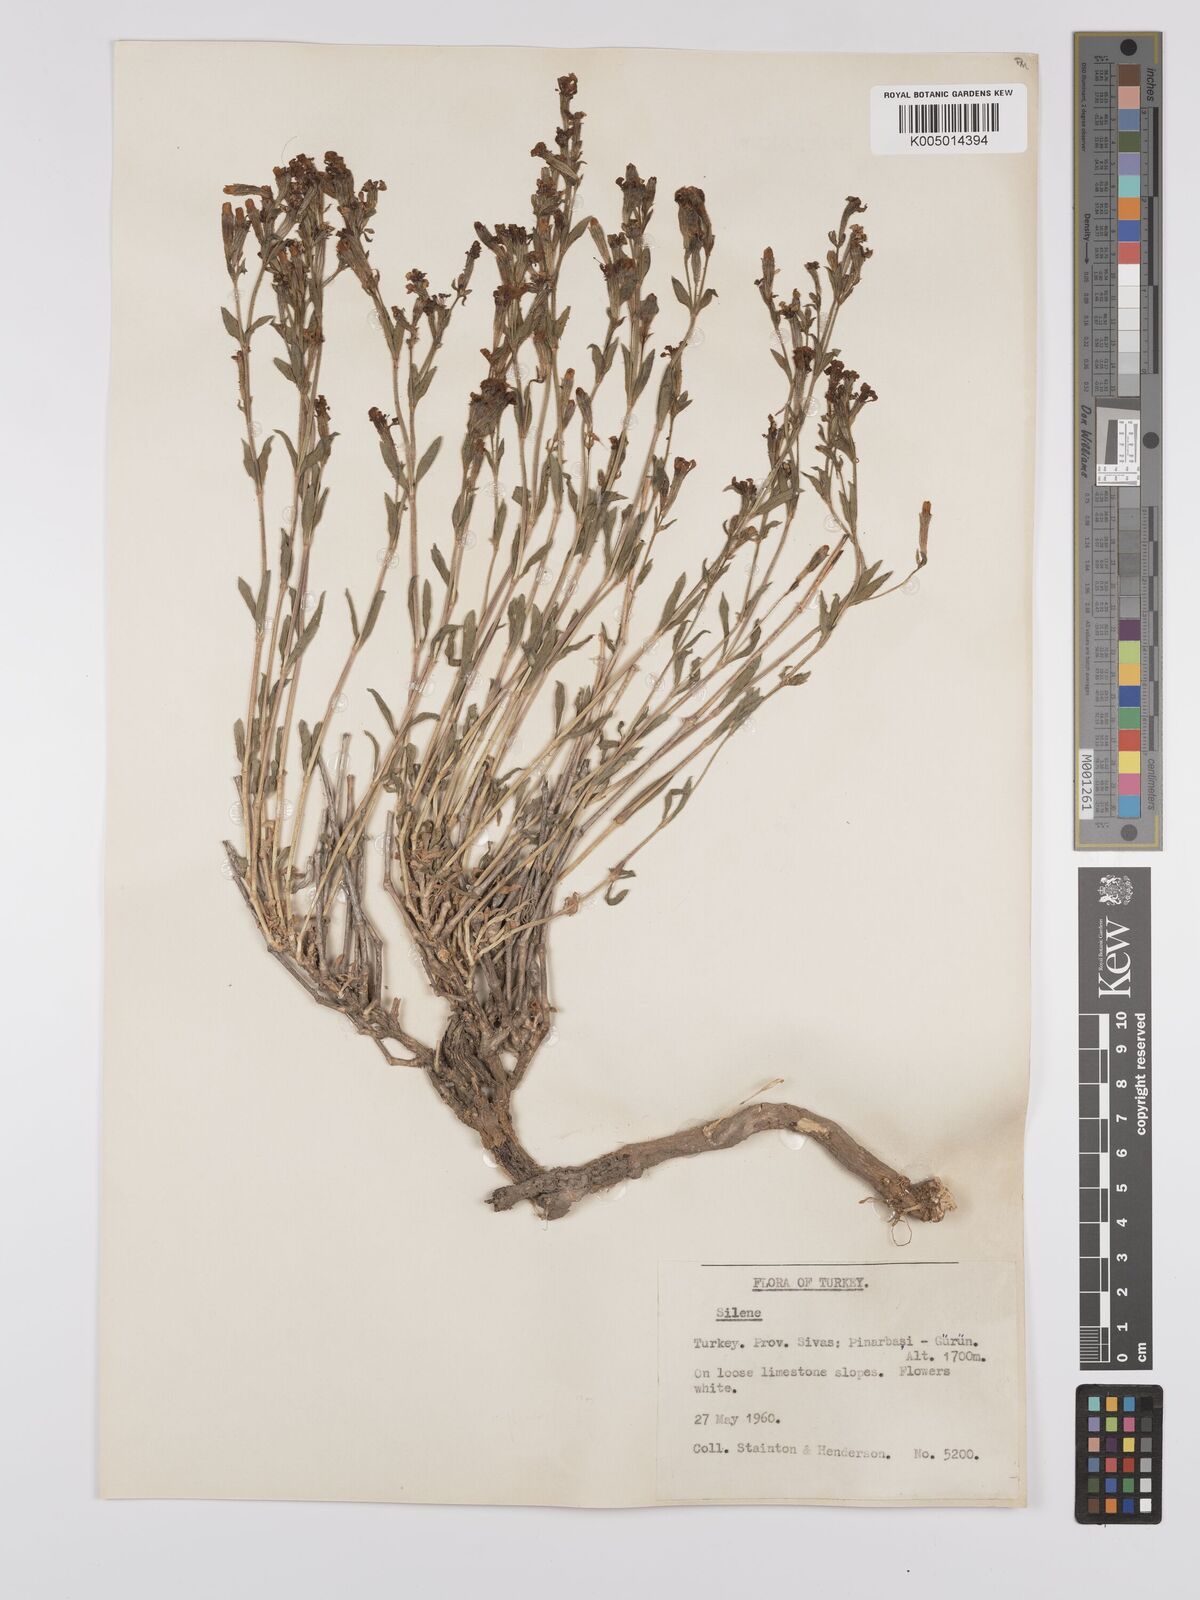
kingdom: Plantae
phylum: Tracheophyta
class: Magnoliopsida
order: Caryophyllales
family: Caryophyllaceae
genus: Silene
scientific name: Silene
